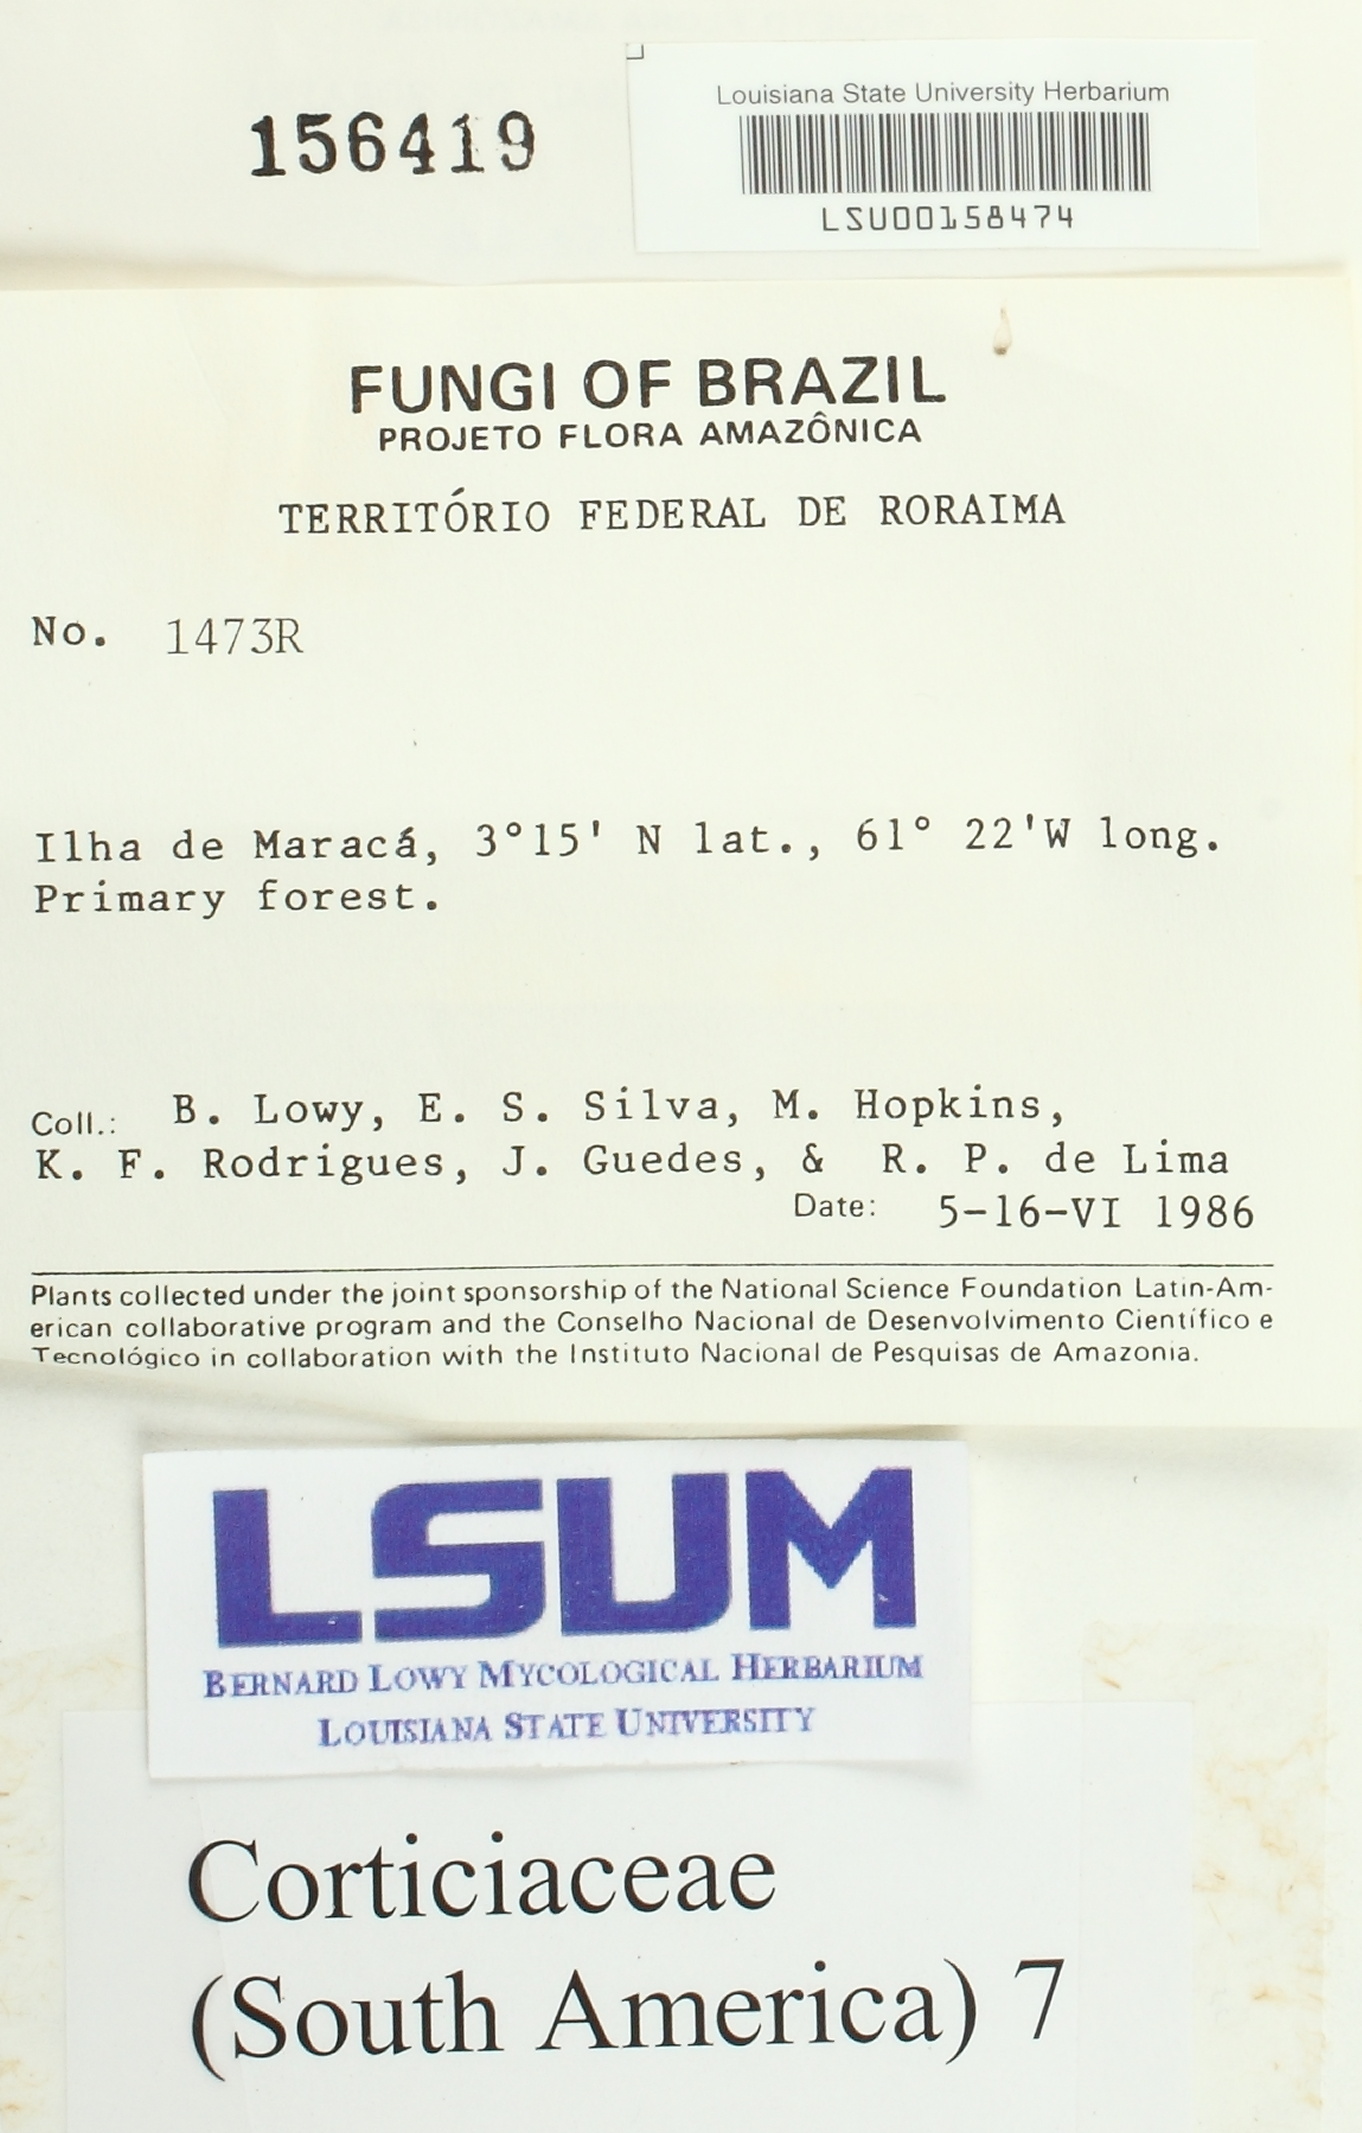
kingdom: Fungi
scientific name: Fungi
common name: Fungi
